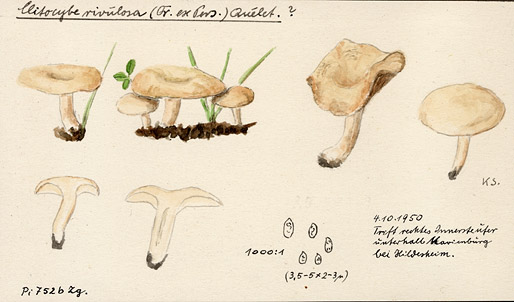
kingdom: Fungi
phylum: Basidiomycota
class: Agaricomycetes
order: Agaricales
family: Tricholomataceae
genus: Clitocybe
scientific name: Clitocybe rivulosa
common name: Cracking clitocybe
